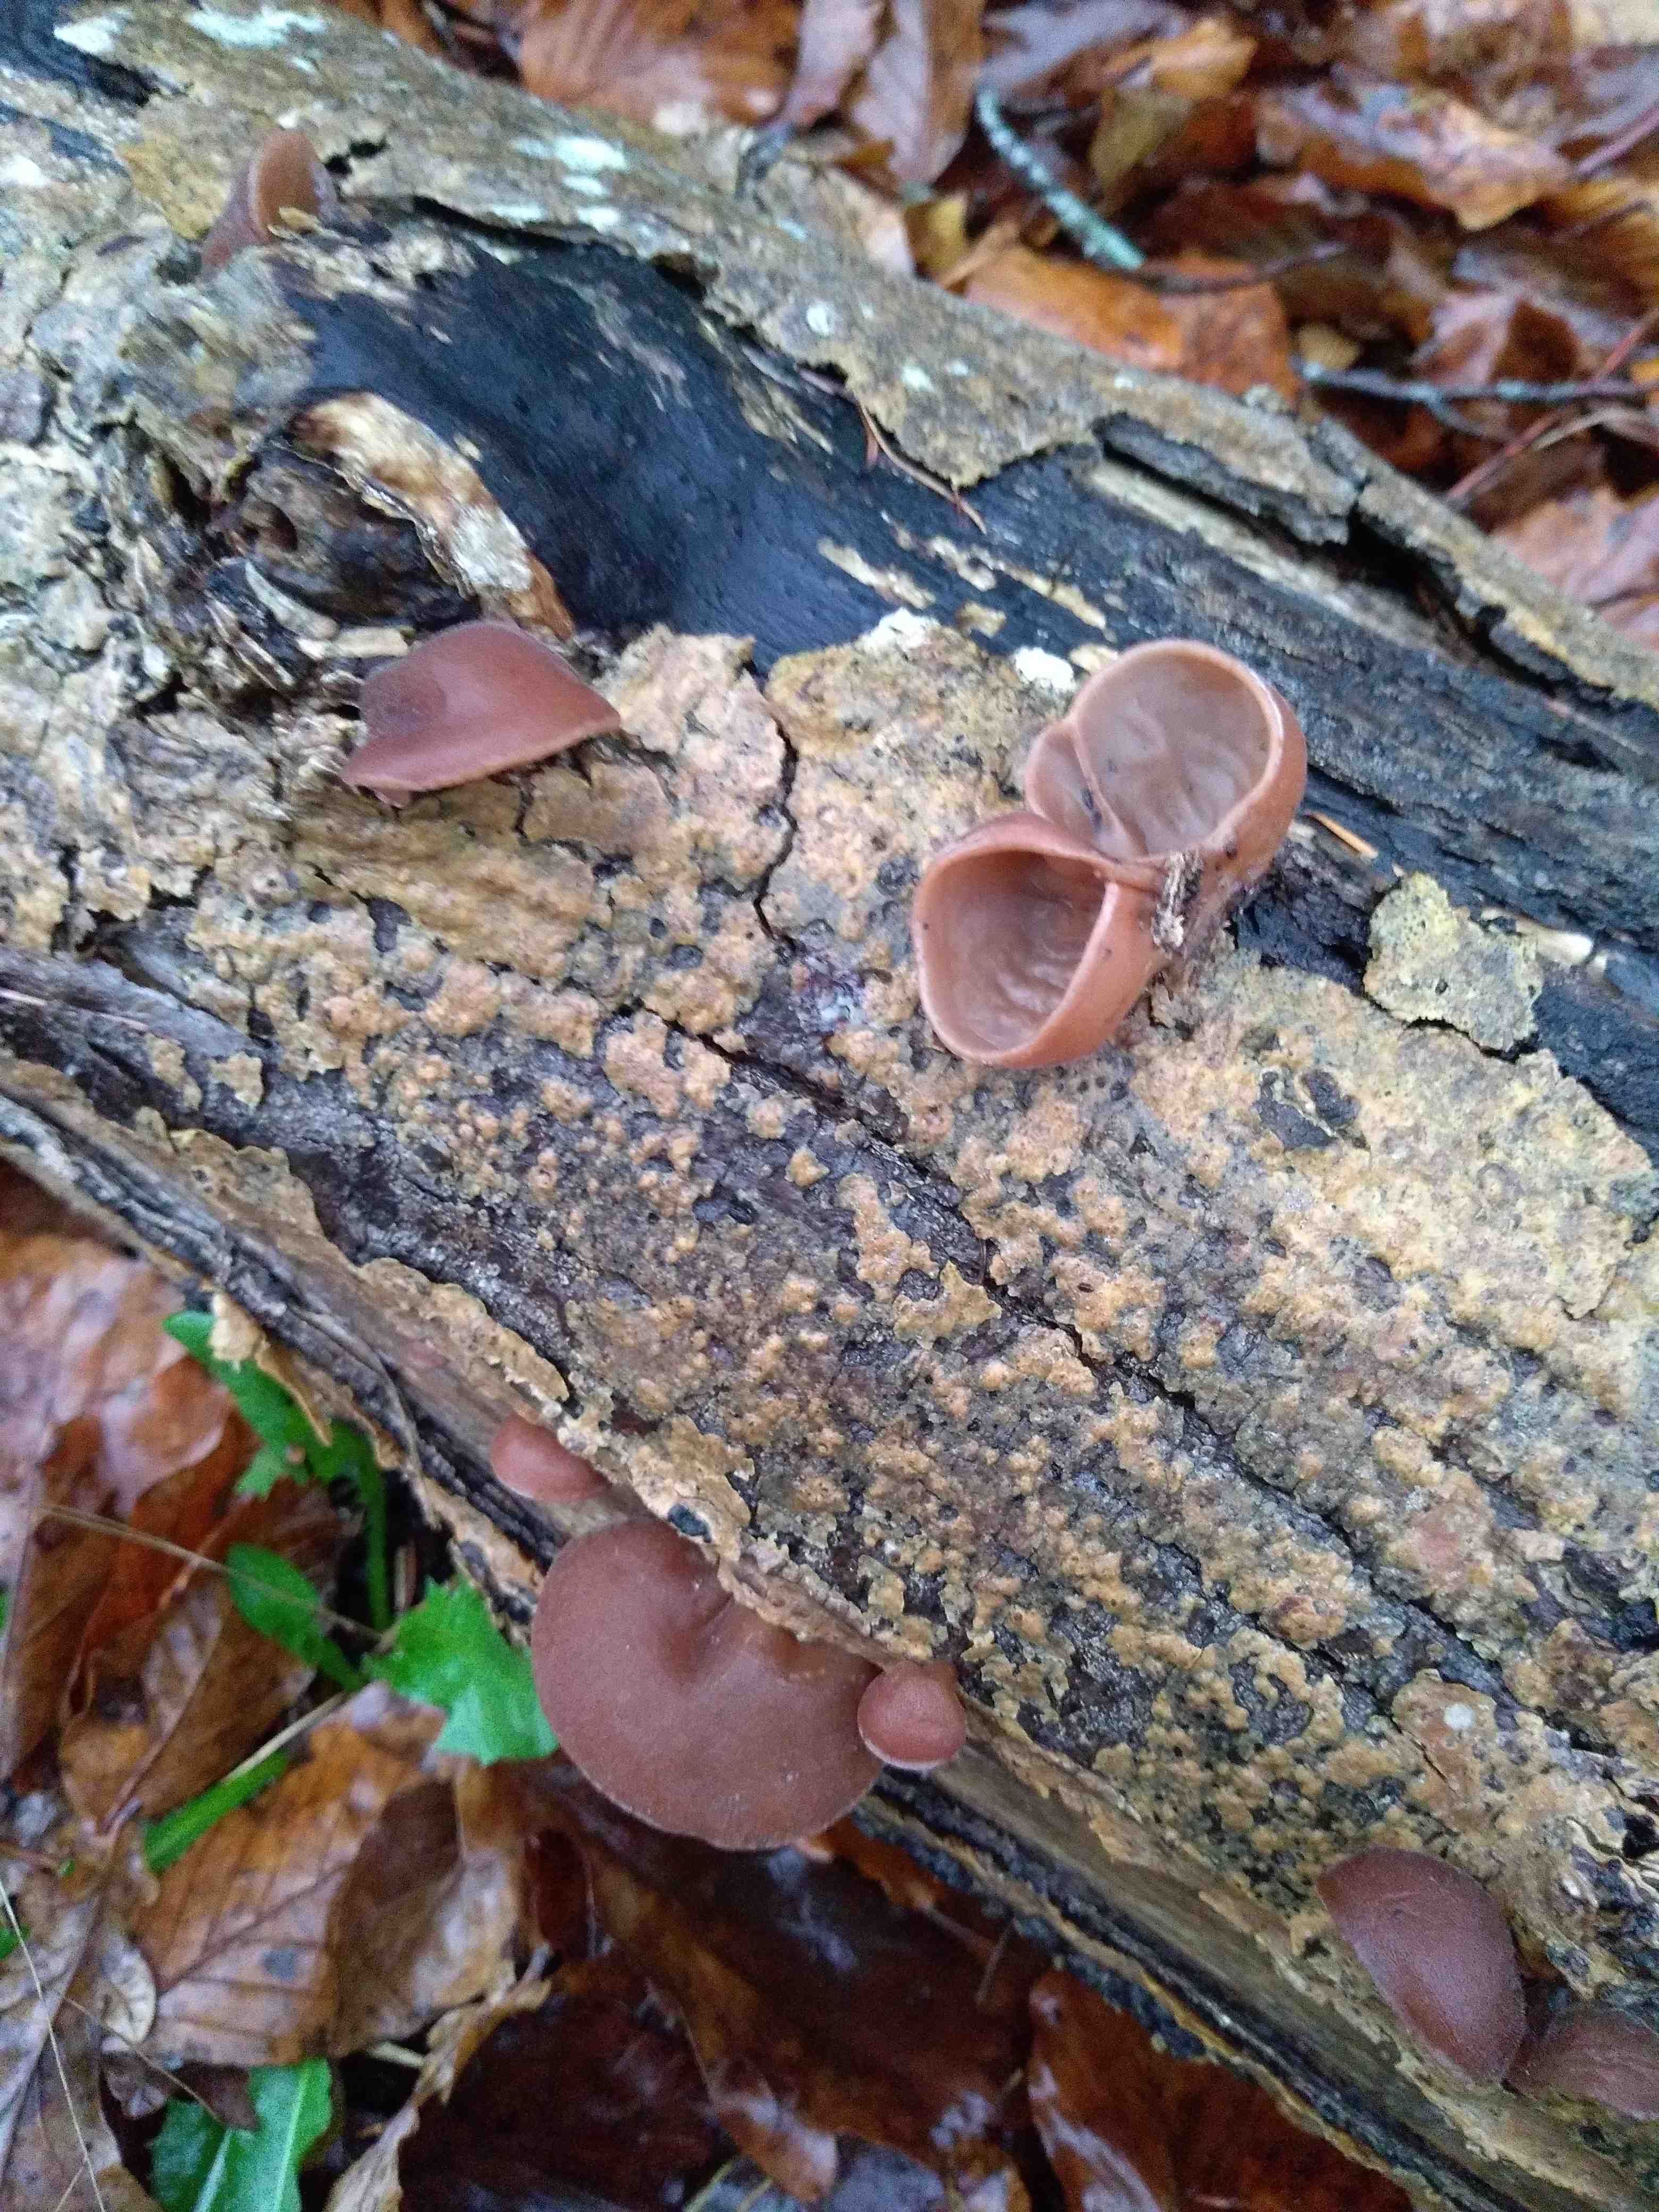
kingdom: Fungi
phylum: Basidiomycota
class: Agaricomycetes
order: Auriculariales
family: Auriculariaceae
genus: Auricularia
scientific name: Auricularia auricula-judae
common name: almindelig judasøre
